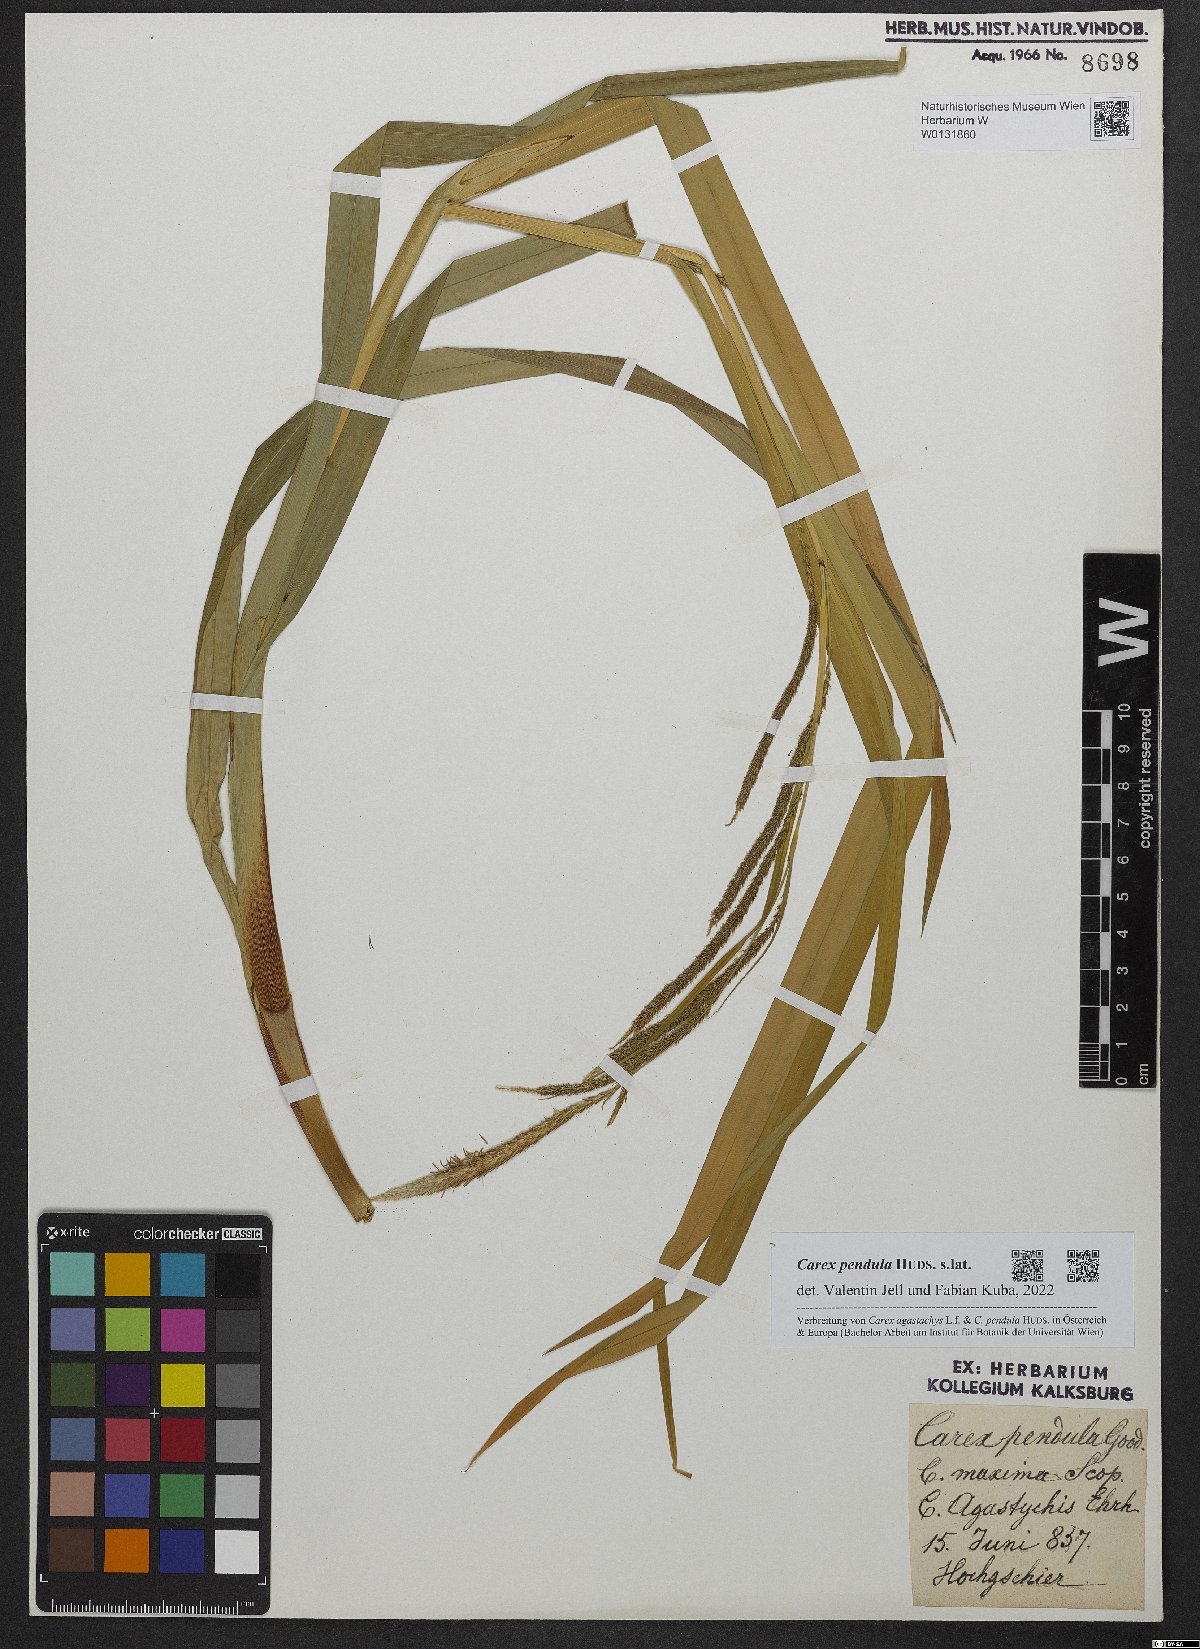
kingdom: Plantae
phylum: Tracheophyta
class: Liliopsida
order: Poales
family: Cyperaceae
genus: Carex
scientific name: Carex pendula
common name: Pendulous sedge
